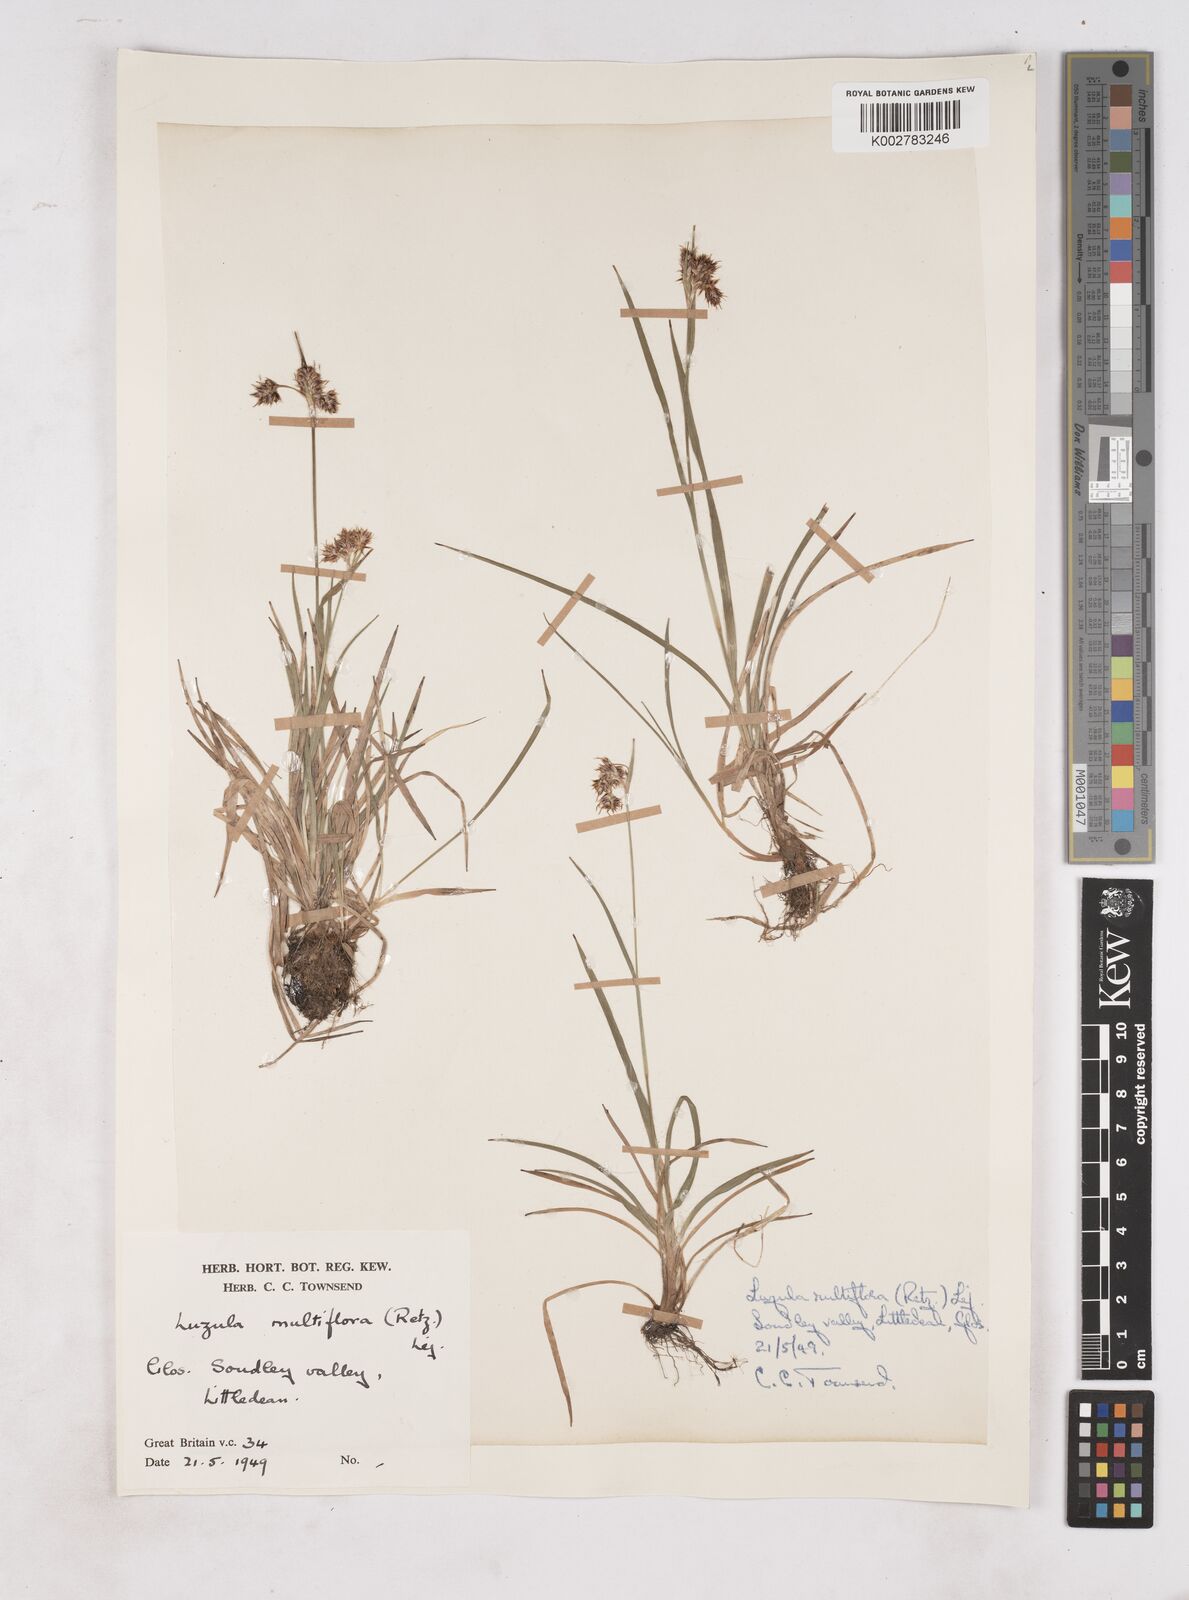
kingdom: Plantae
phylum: Tracheophyta
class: Liliopsida
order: Poales
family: Juncaceae
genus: Luzula
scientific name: Luzula multiflora
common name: Heath wood-rush
